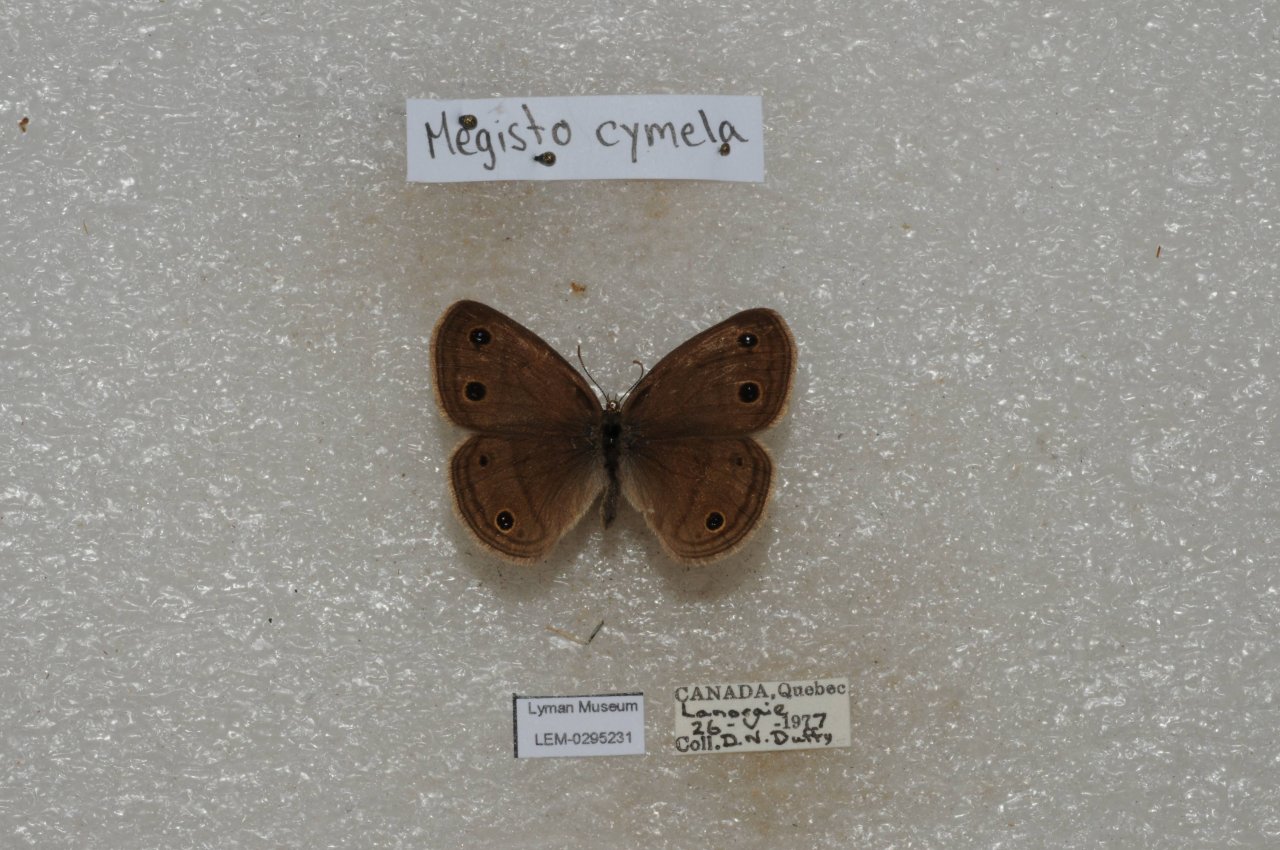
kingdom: Animalia
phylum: Arthropoda
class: Insecta
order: Lepidoptera
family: Nymphalidae
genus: Euptychia
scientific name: Euptychia cymela
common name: Little Wood Satyr
